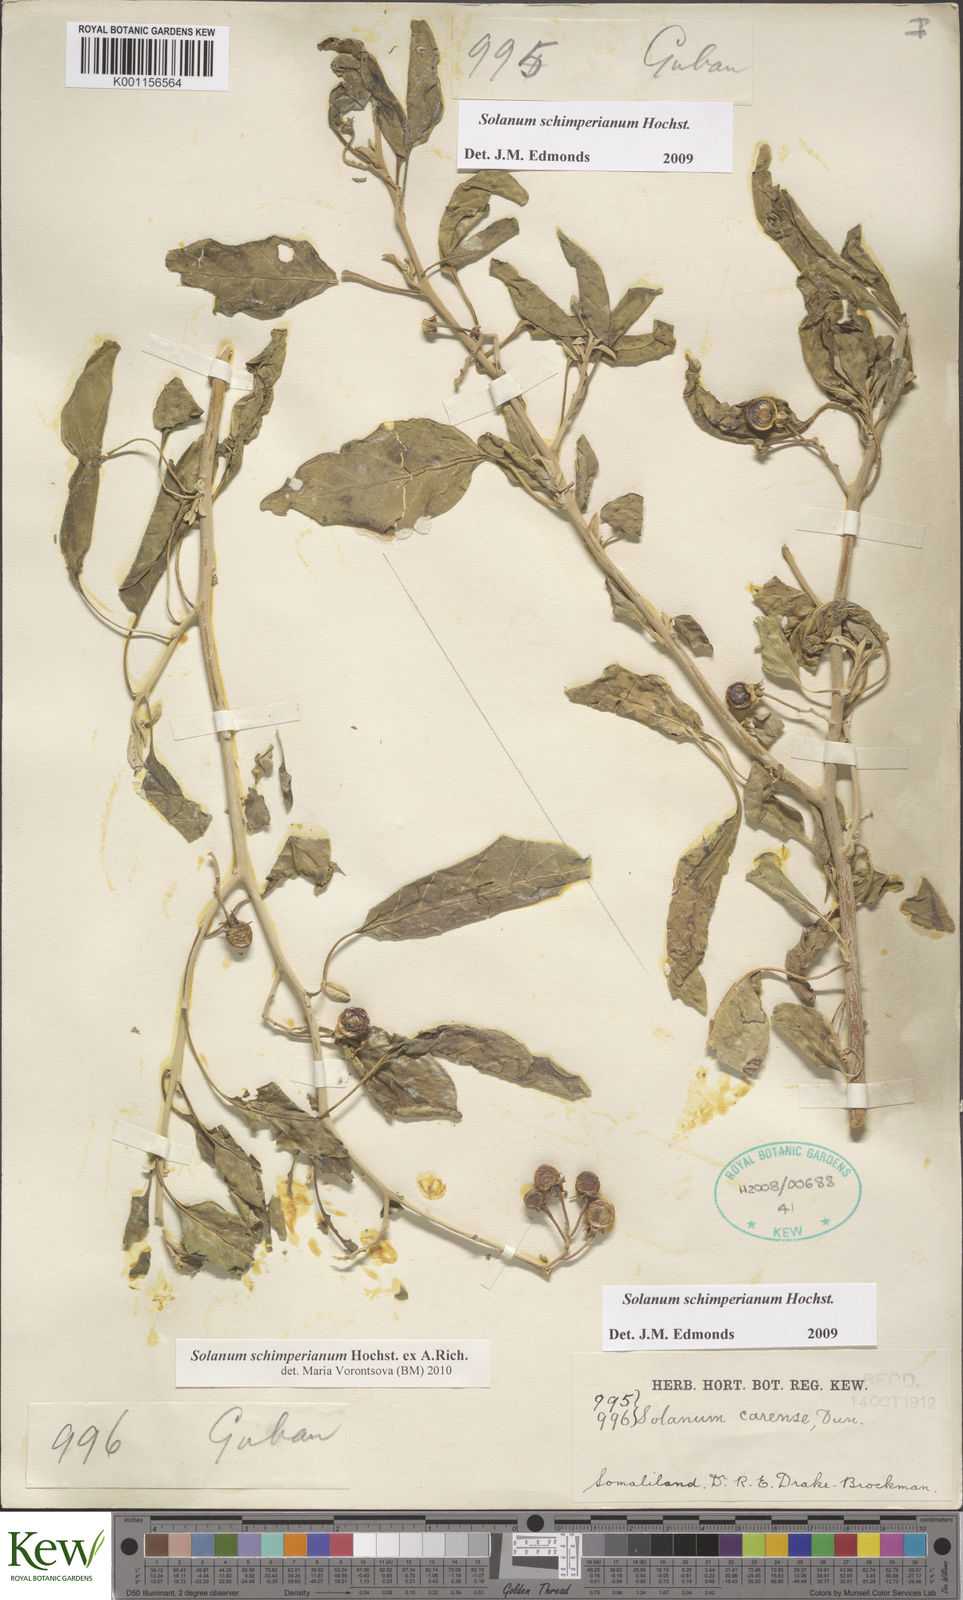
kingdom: Plantae
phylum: Tracheophyta
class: Magnoliopsida
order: Solanales
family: Solanaceae
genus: Solanum
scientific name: Solanum
